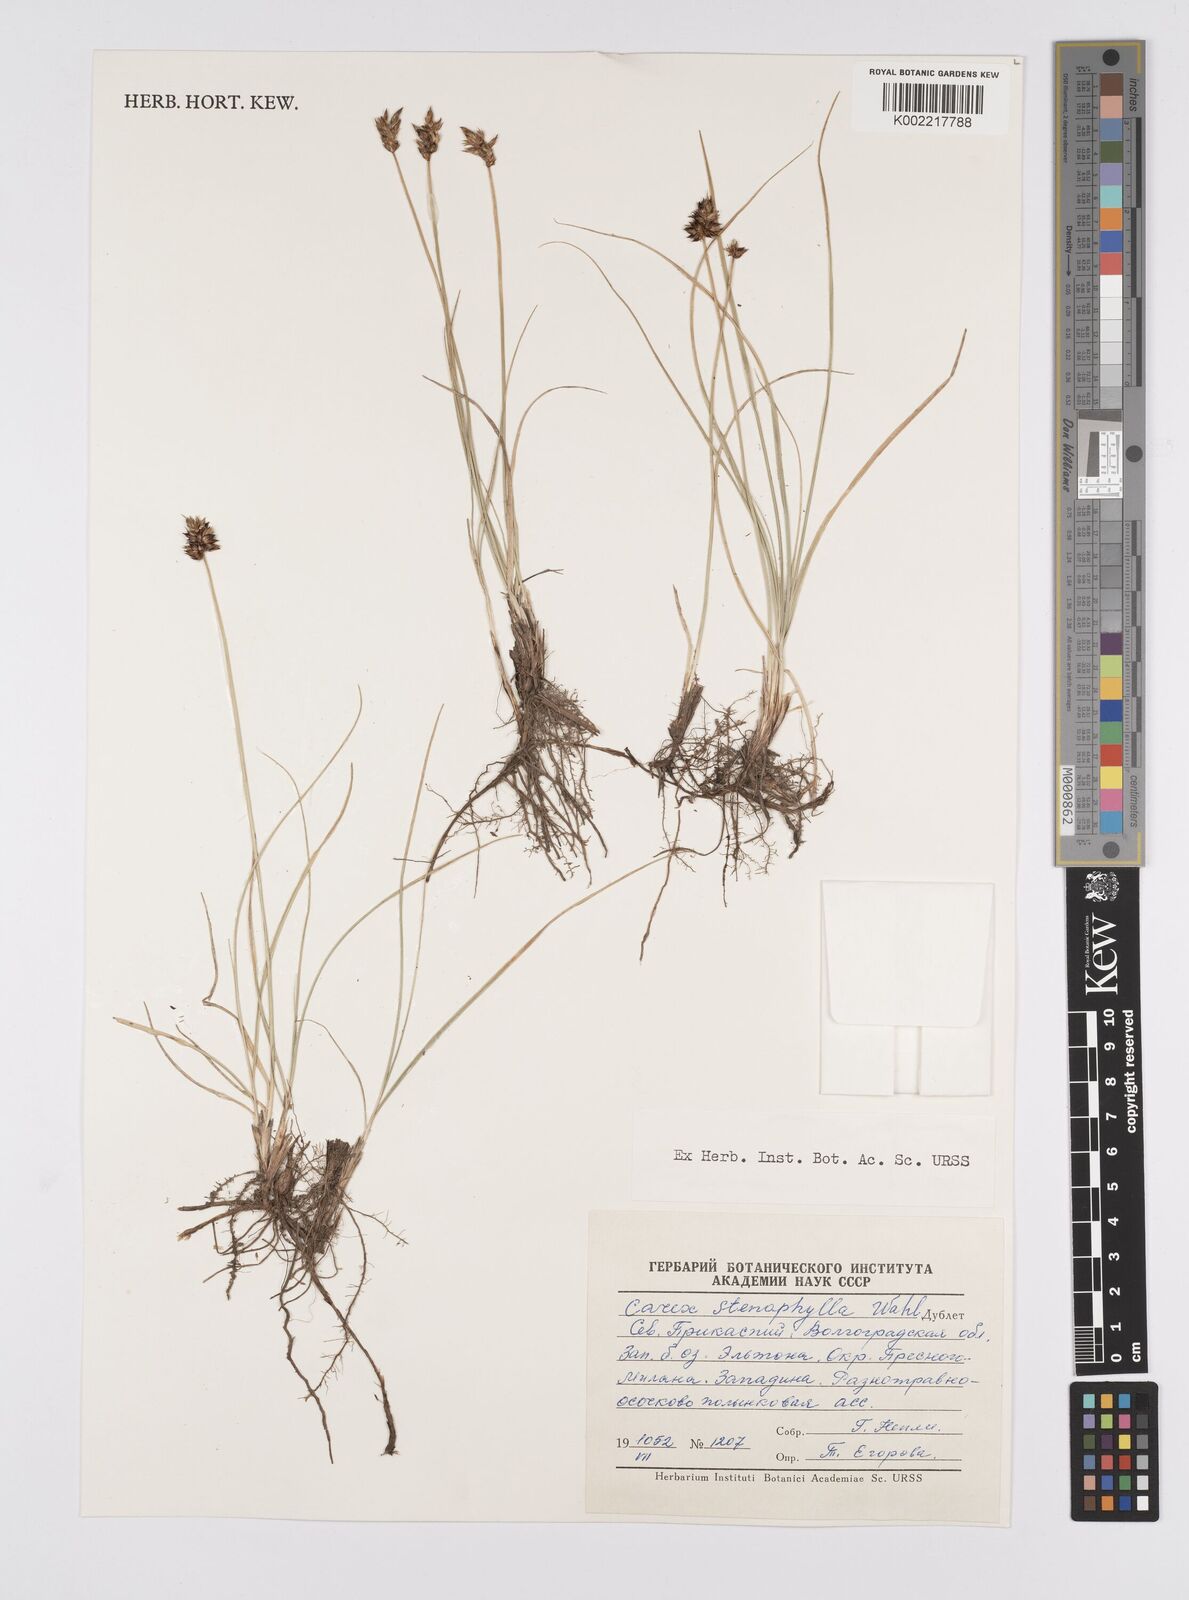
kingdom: Plantae
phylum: Tracheophyta
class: Liliopsida
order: Poales
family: Cyperaceae
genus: Carex
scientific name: Carex stenophylla
